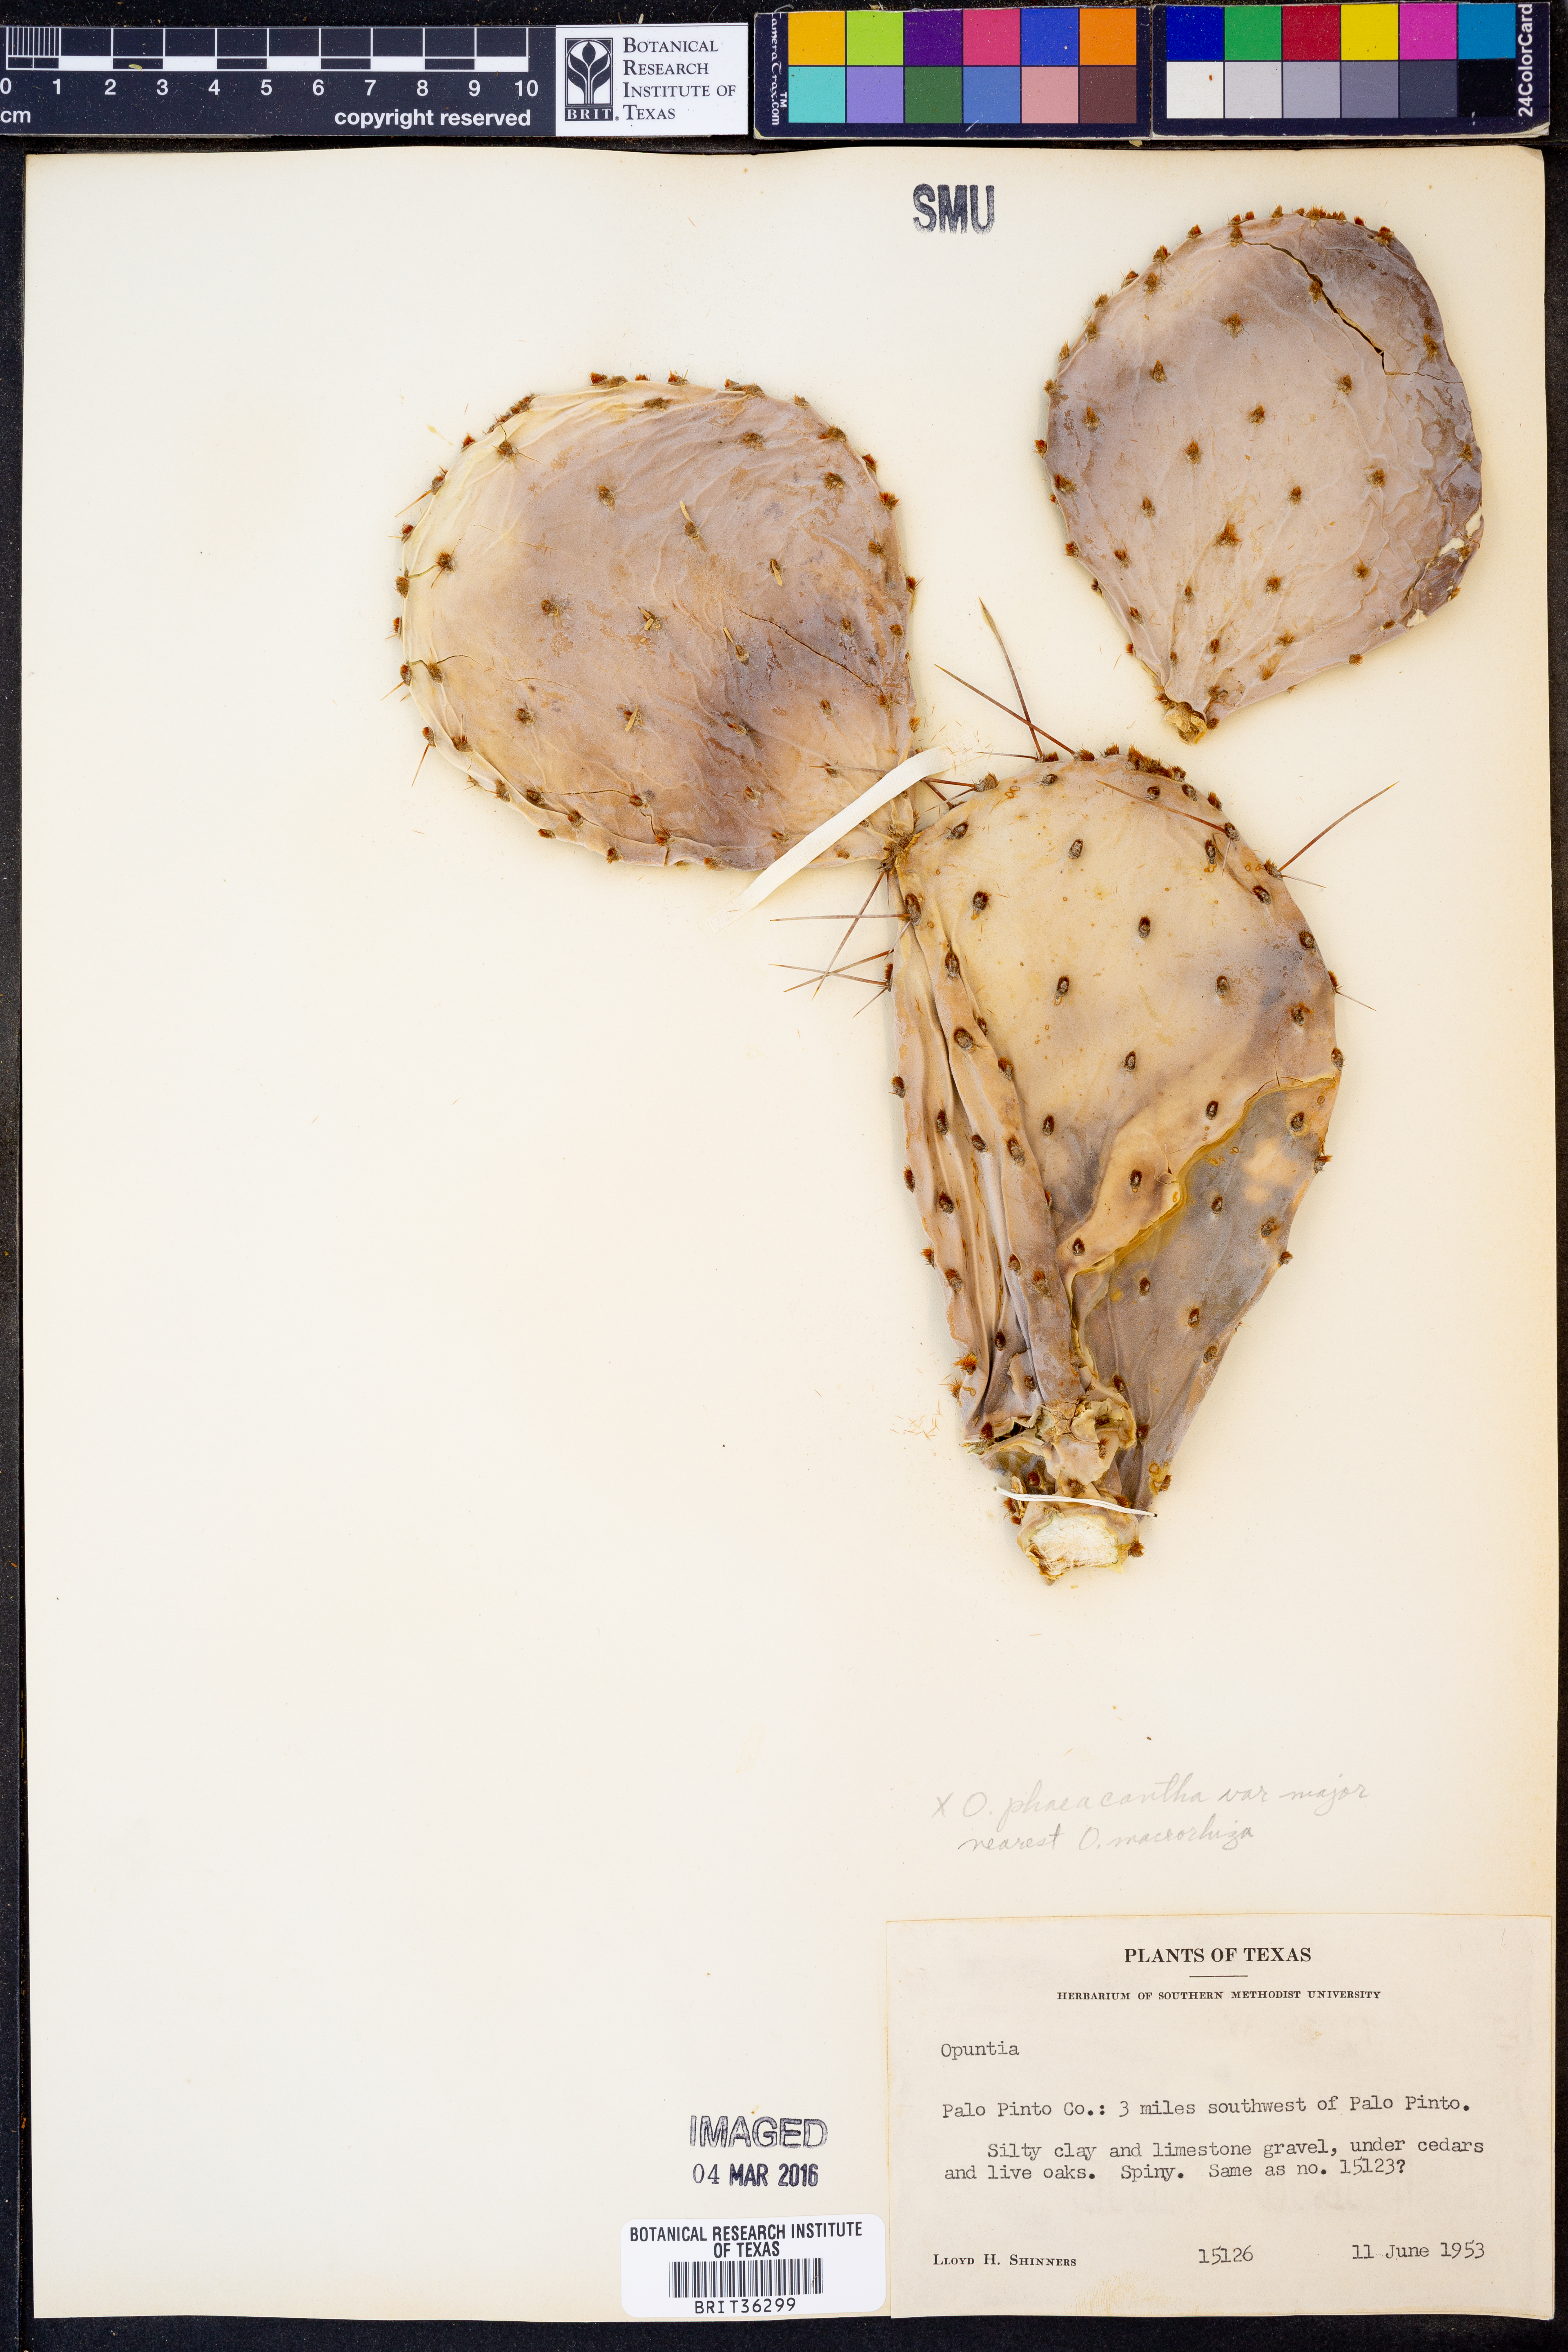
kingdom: Plantae
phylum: Tracheophyta
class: Magnoliopsida
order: Caryophyllales
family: Cactaceae
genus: Opuntia
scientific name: Opuntia phaeacantha
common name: New mexico prickly-pear
